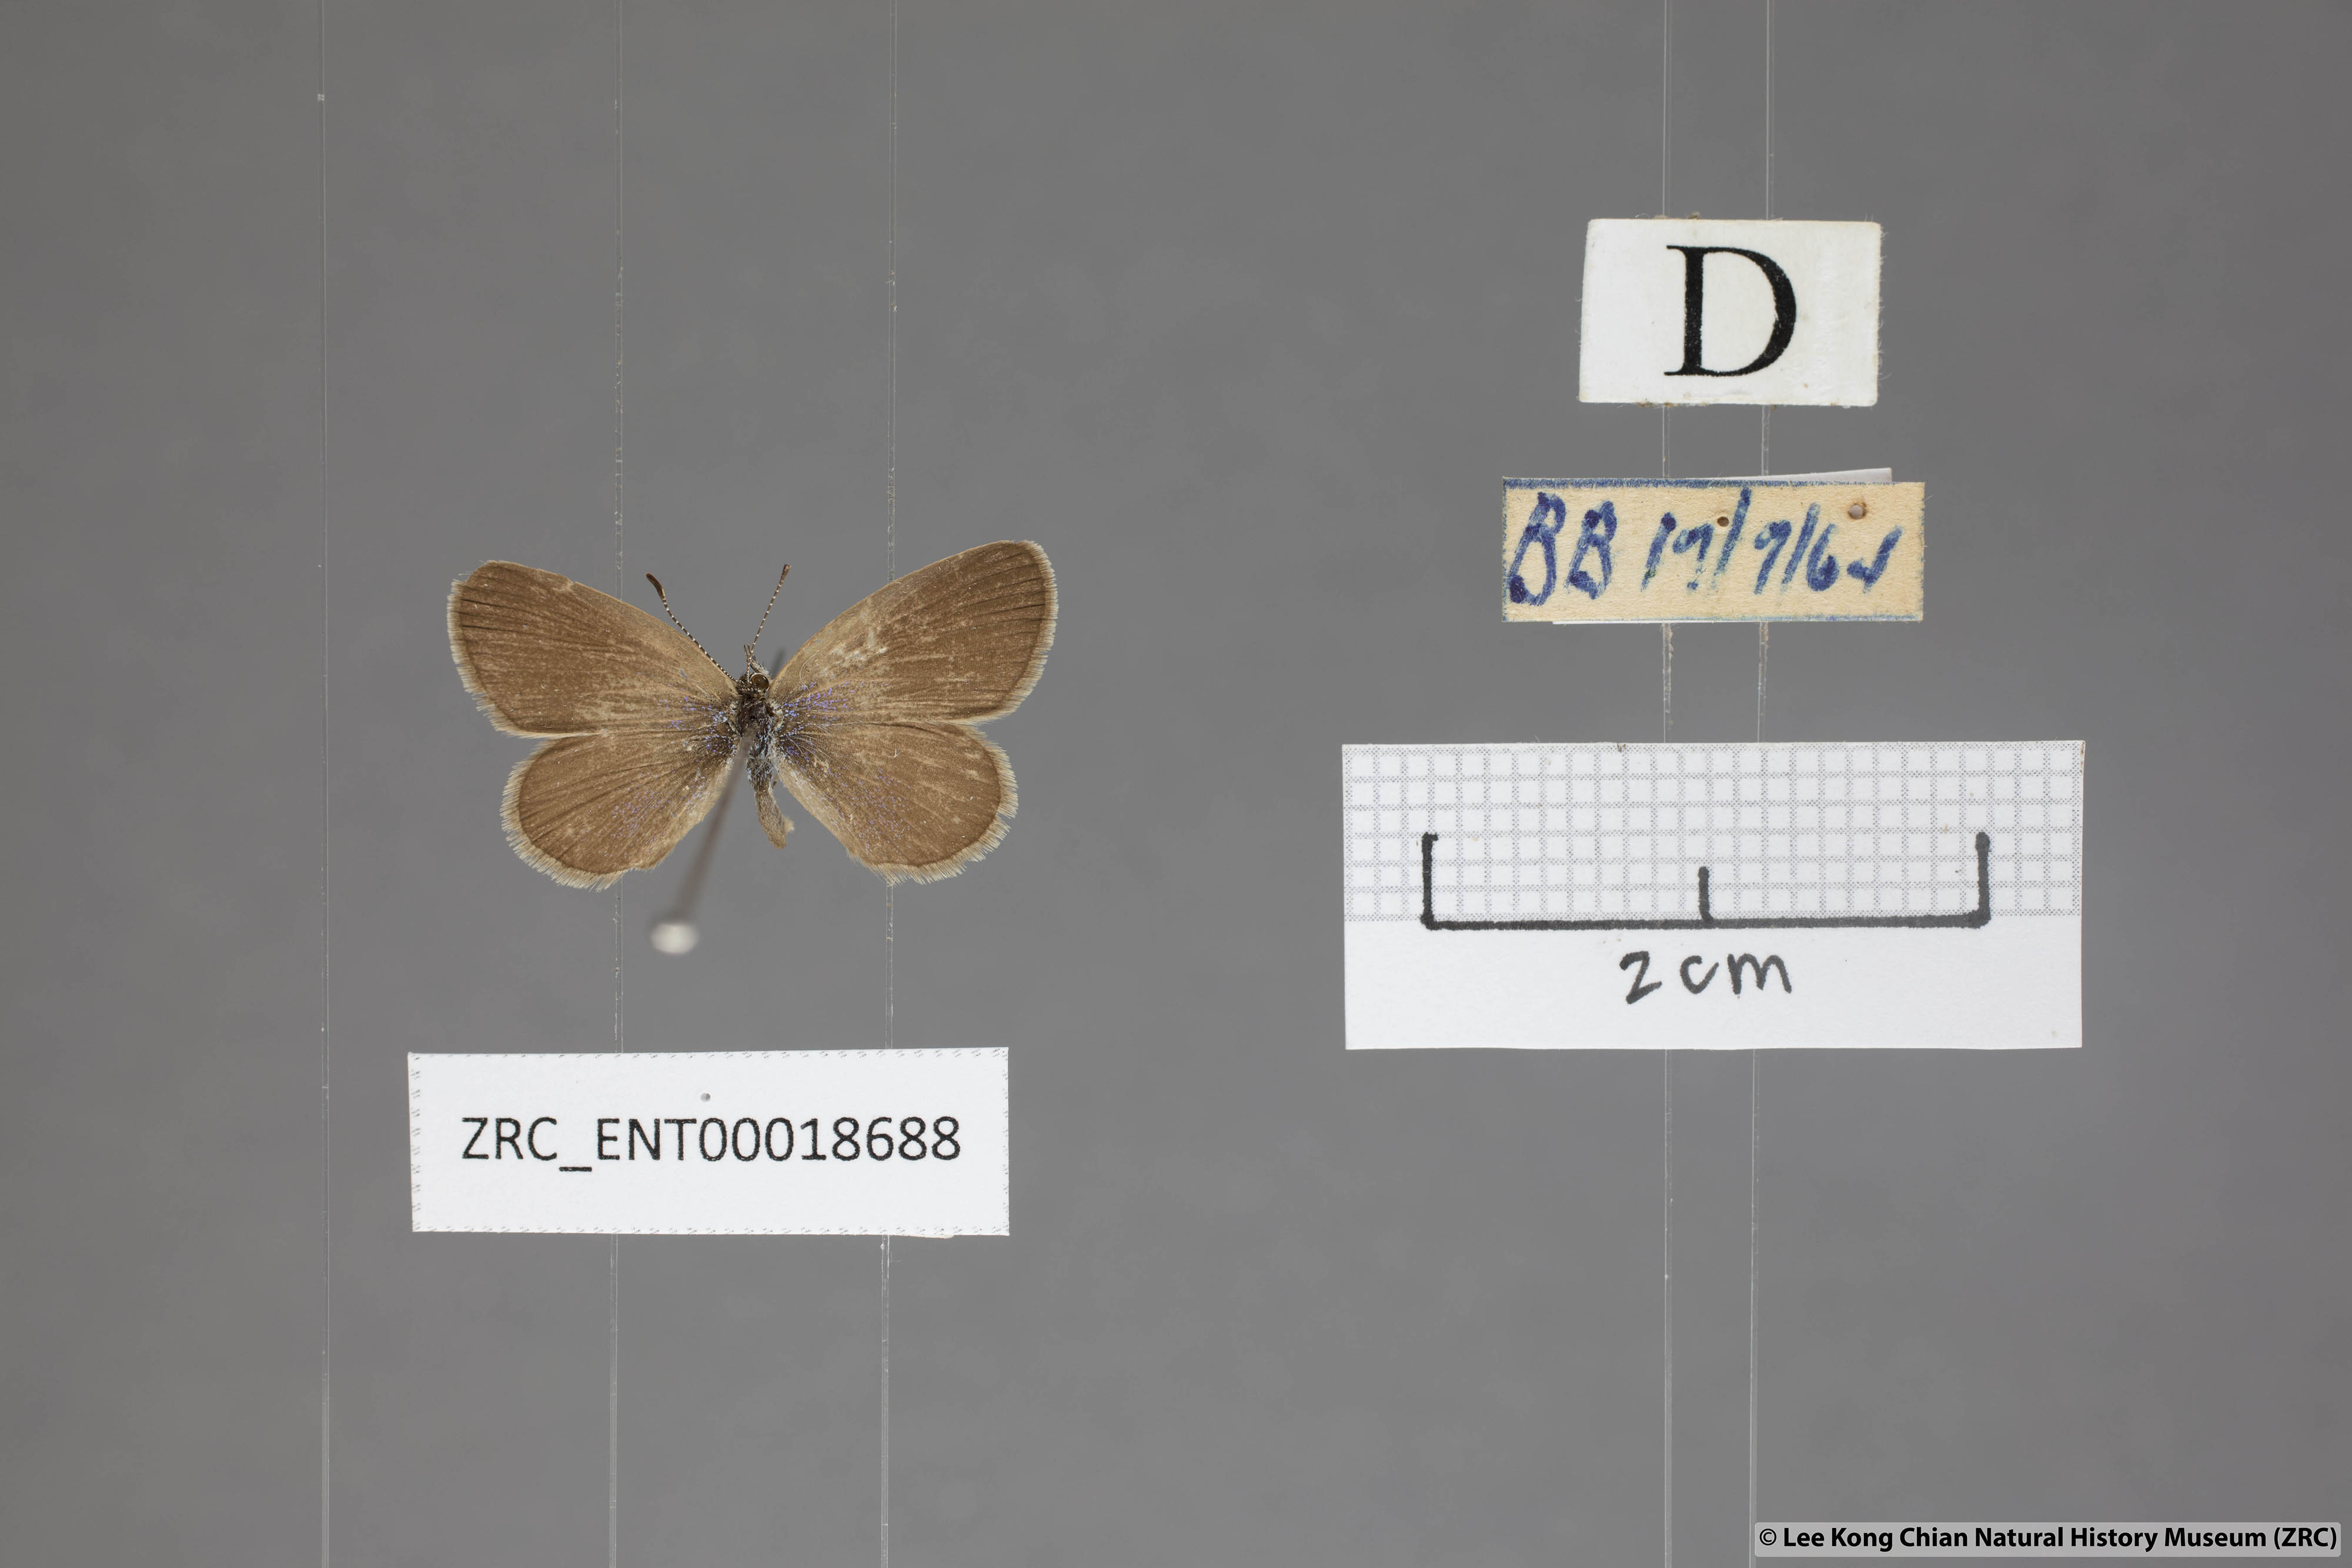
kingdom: Animalia
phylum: Arthropoda
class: Insecta
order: Lepidoptera
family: Lycaenidae
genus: Zizina
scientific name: Zizina otis
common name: Lesser grass blue
